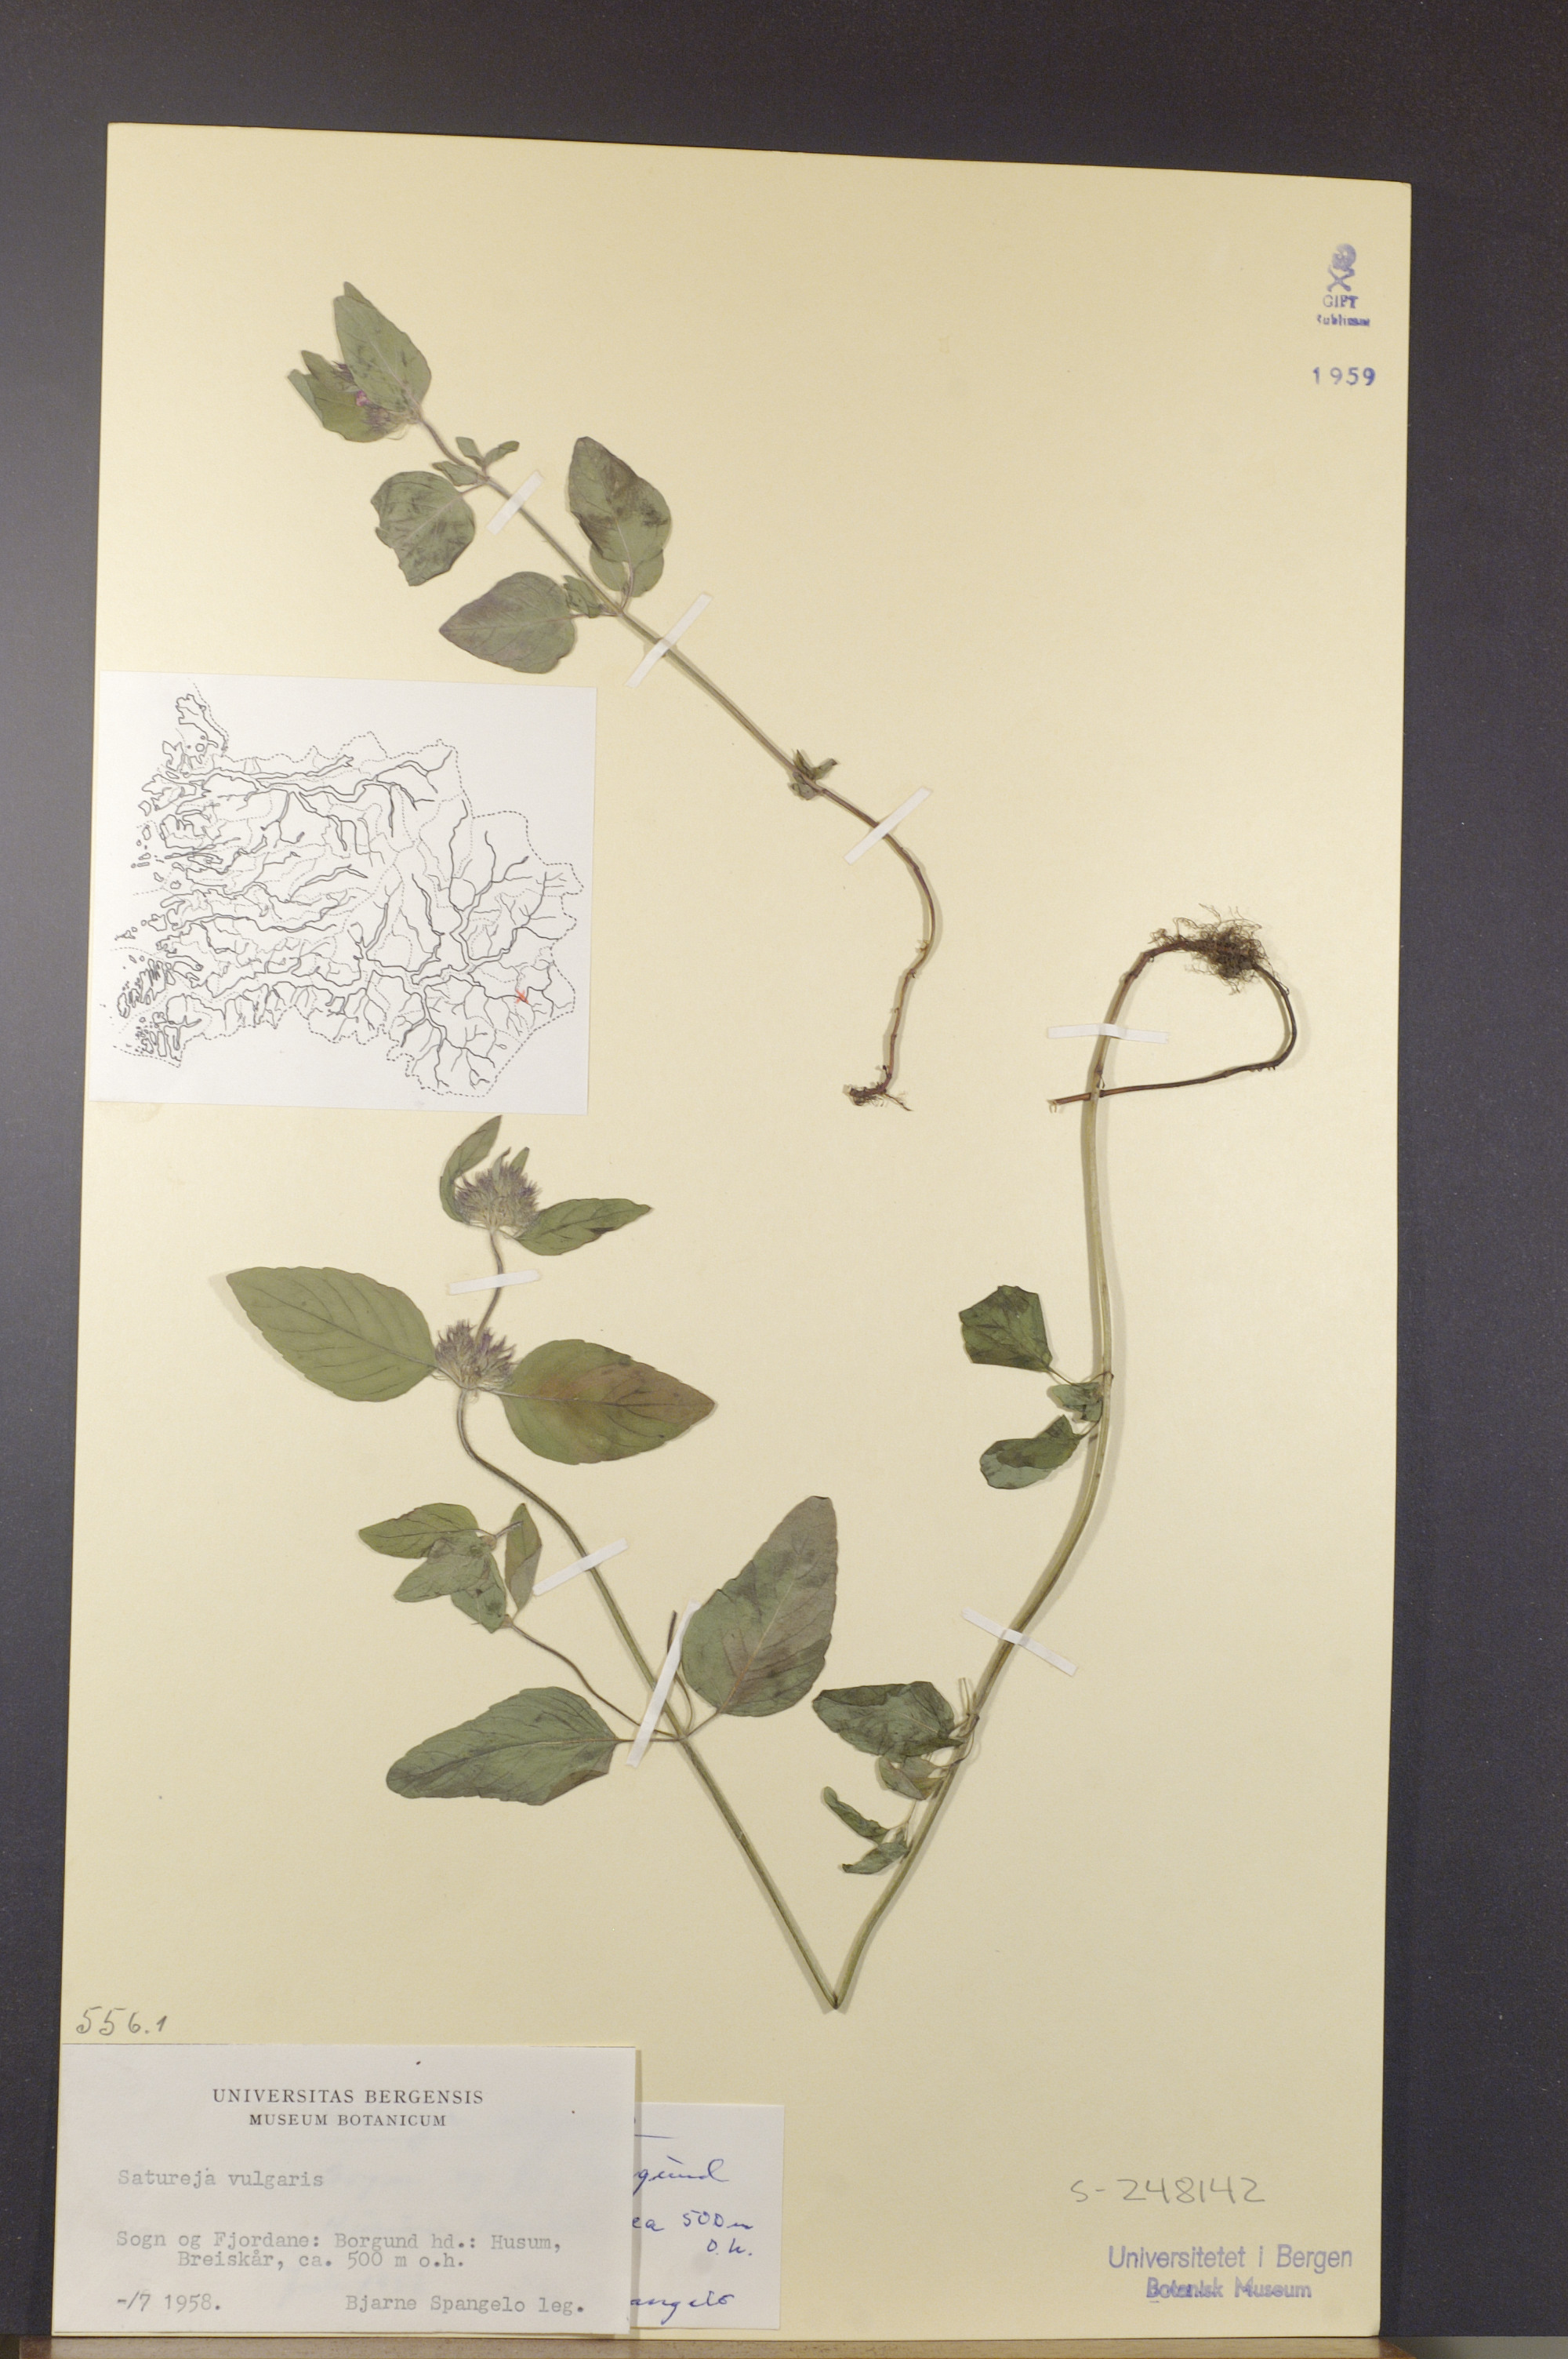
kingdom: Plantae
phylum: Tracheophyta
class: Magnoliopsida
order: Lamiales
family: Lamiaceae
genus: Clinopodium
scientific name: Clinopodium vulgare
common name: Wild basil
